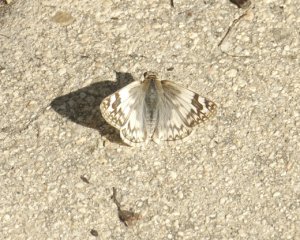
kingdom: Animalia
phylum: Arthropoda
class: Insecta
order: Lepidoptera
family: Hesperiidae
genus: Heliopetes
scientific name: Heliopetes ericetorum
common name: Northern White-Skipper
